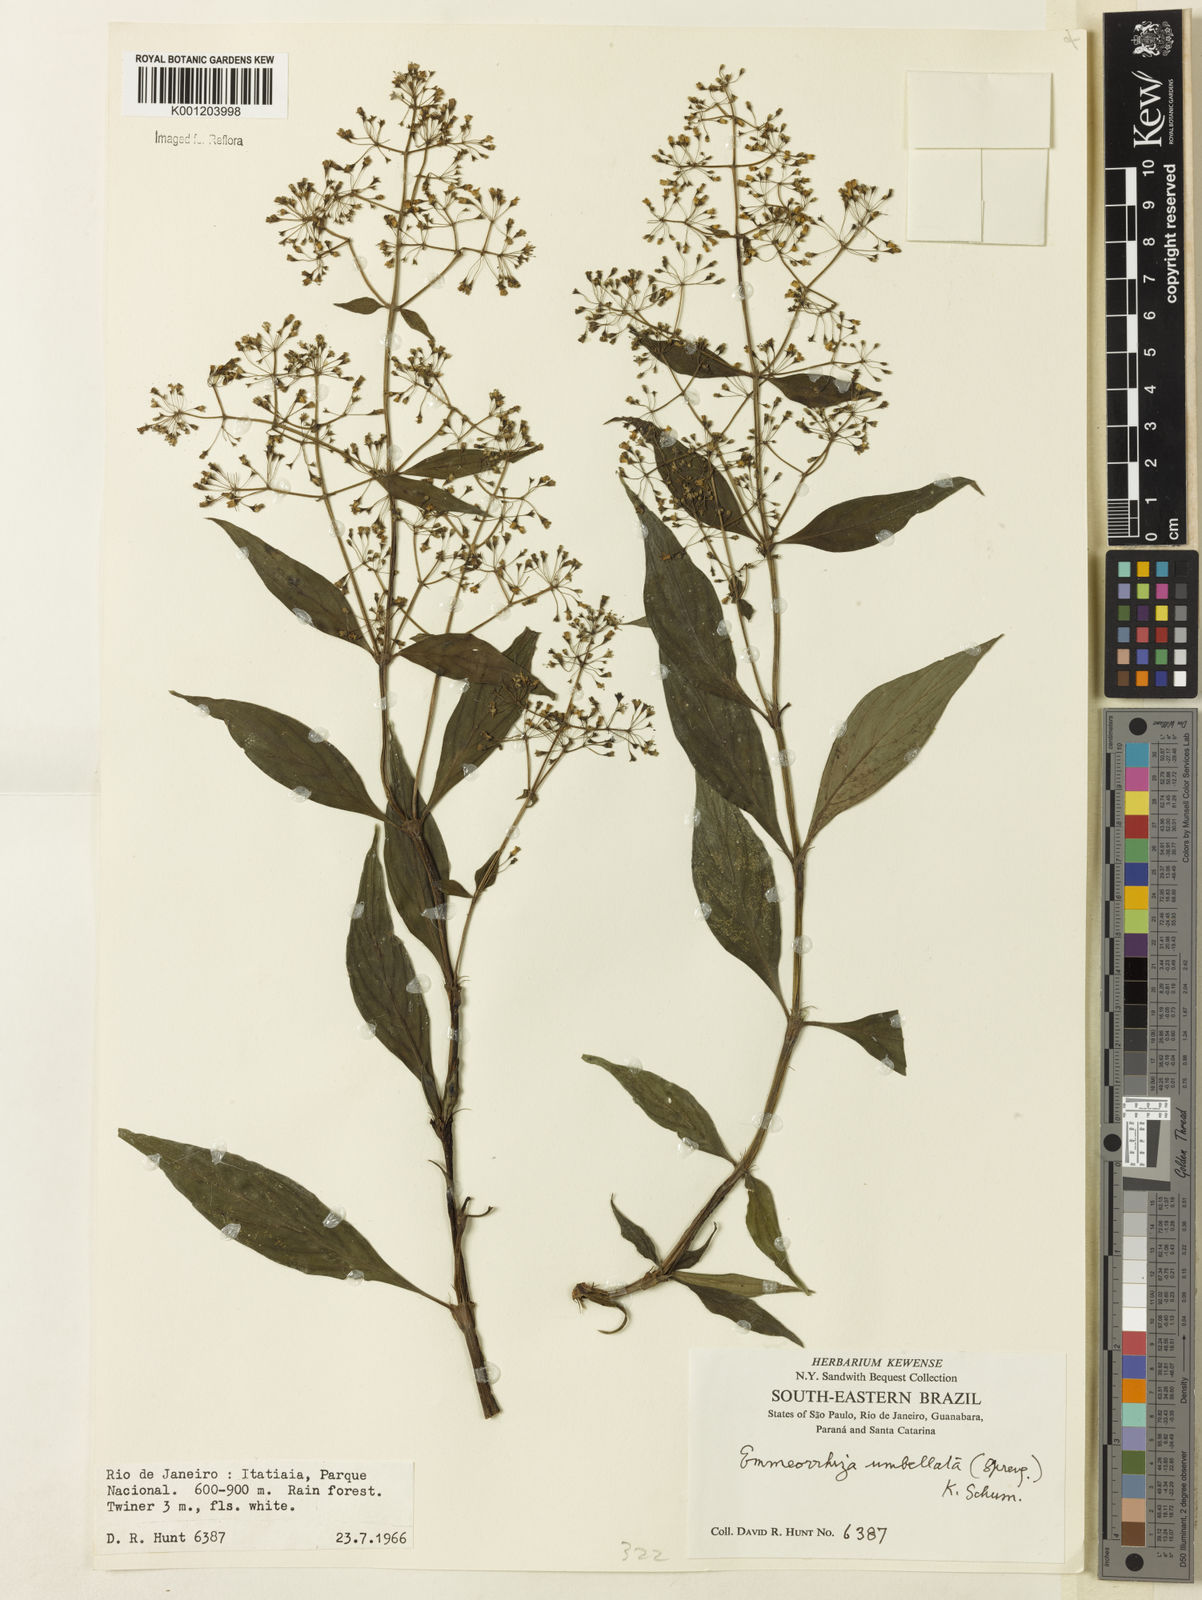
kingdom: Plantae
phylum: Tracheophyta
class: Magnoliopsida
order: Gentianales
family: Rubiaceae
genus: Emmeorhiza
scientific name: Emmeorhiza umbellata
